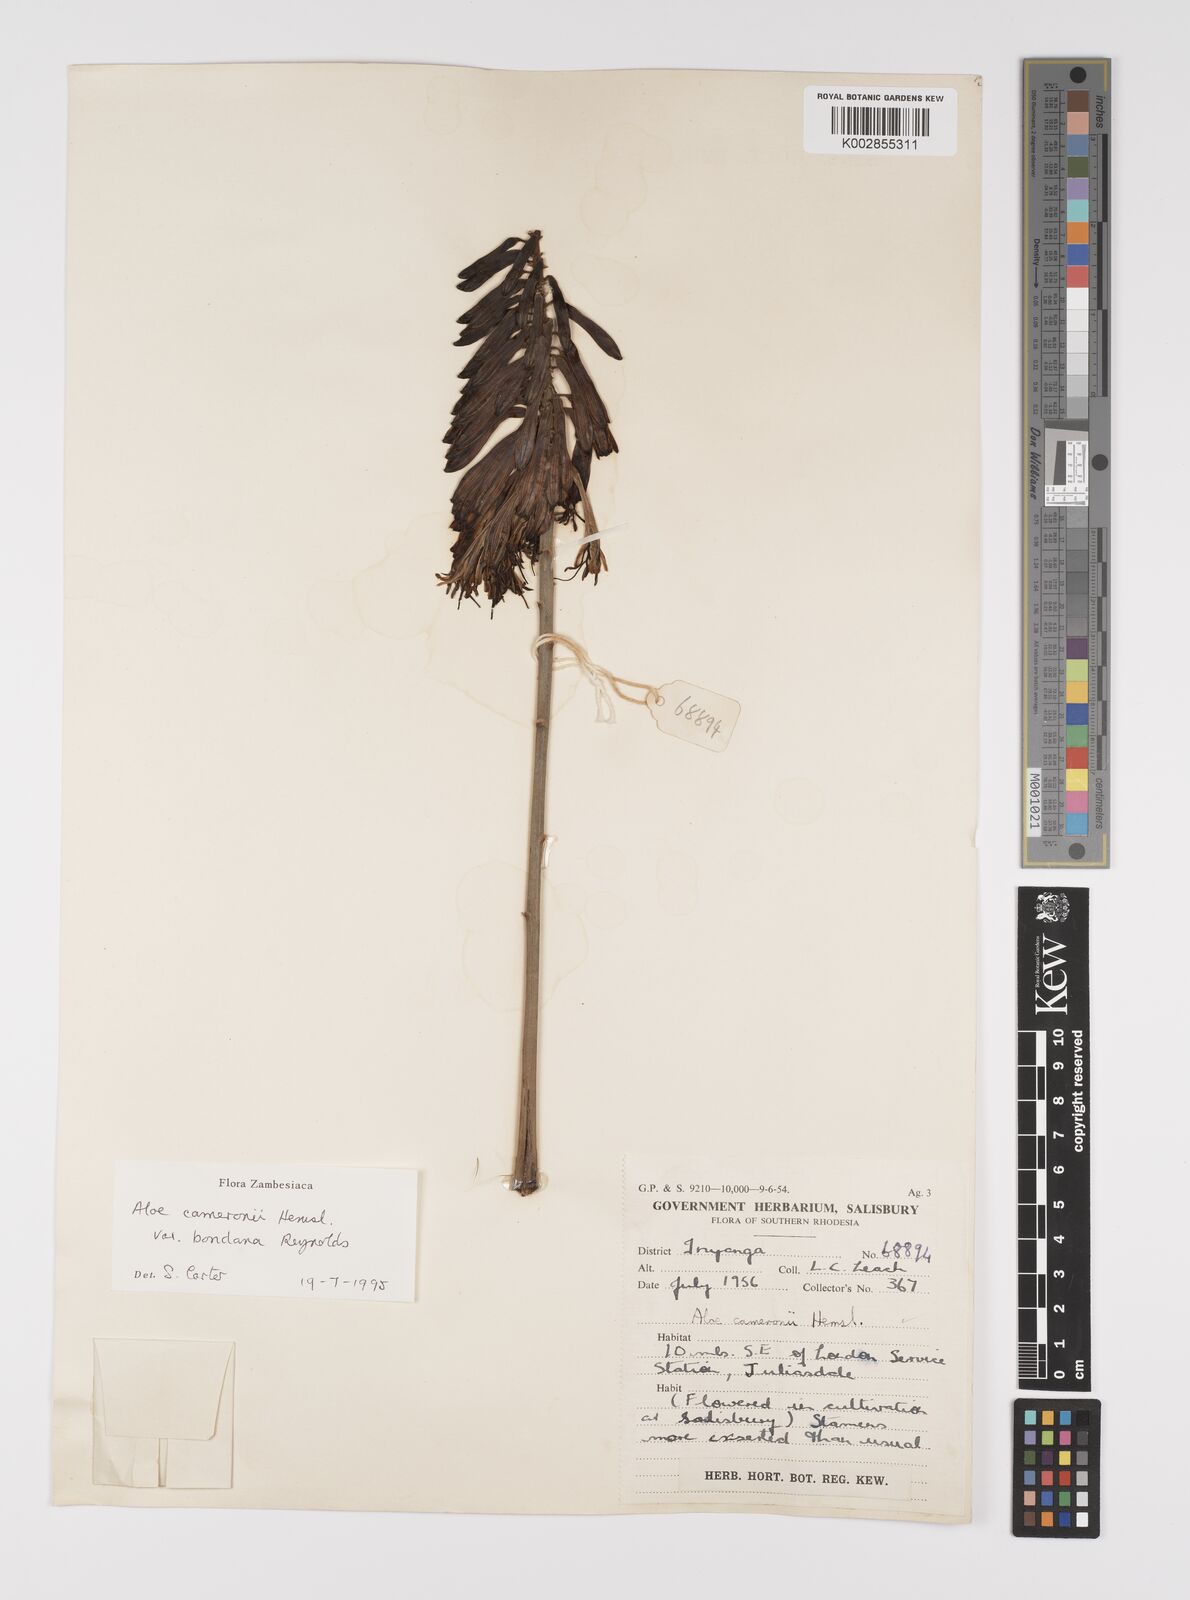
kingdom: Plantae
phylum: Tracheophyta
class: Liliopsida
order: Asparagales
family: Asphodelaceae
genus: Aloe
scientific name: Aloe cameronii
